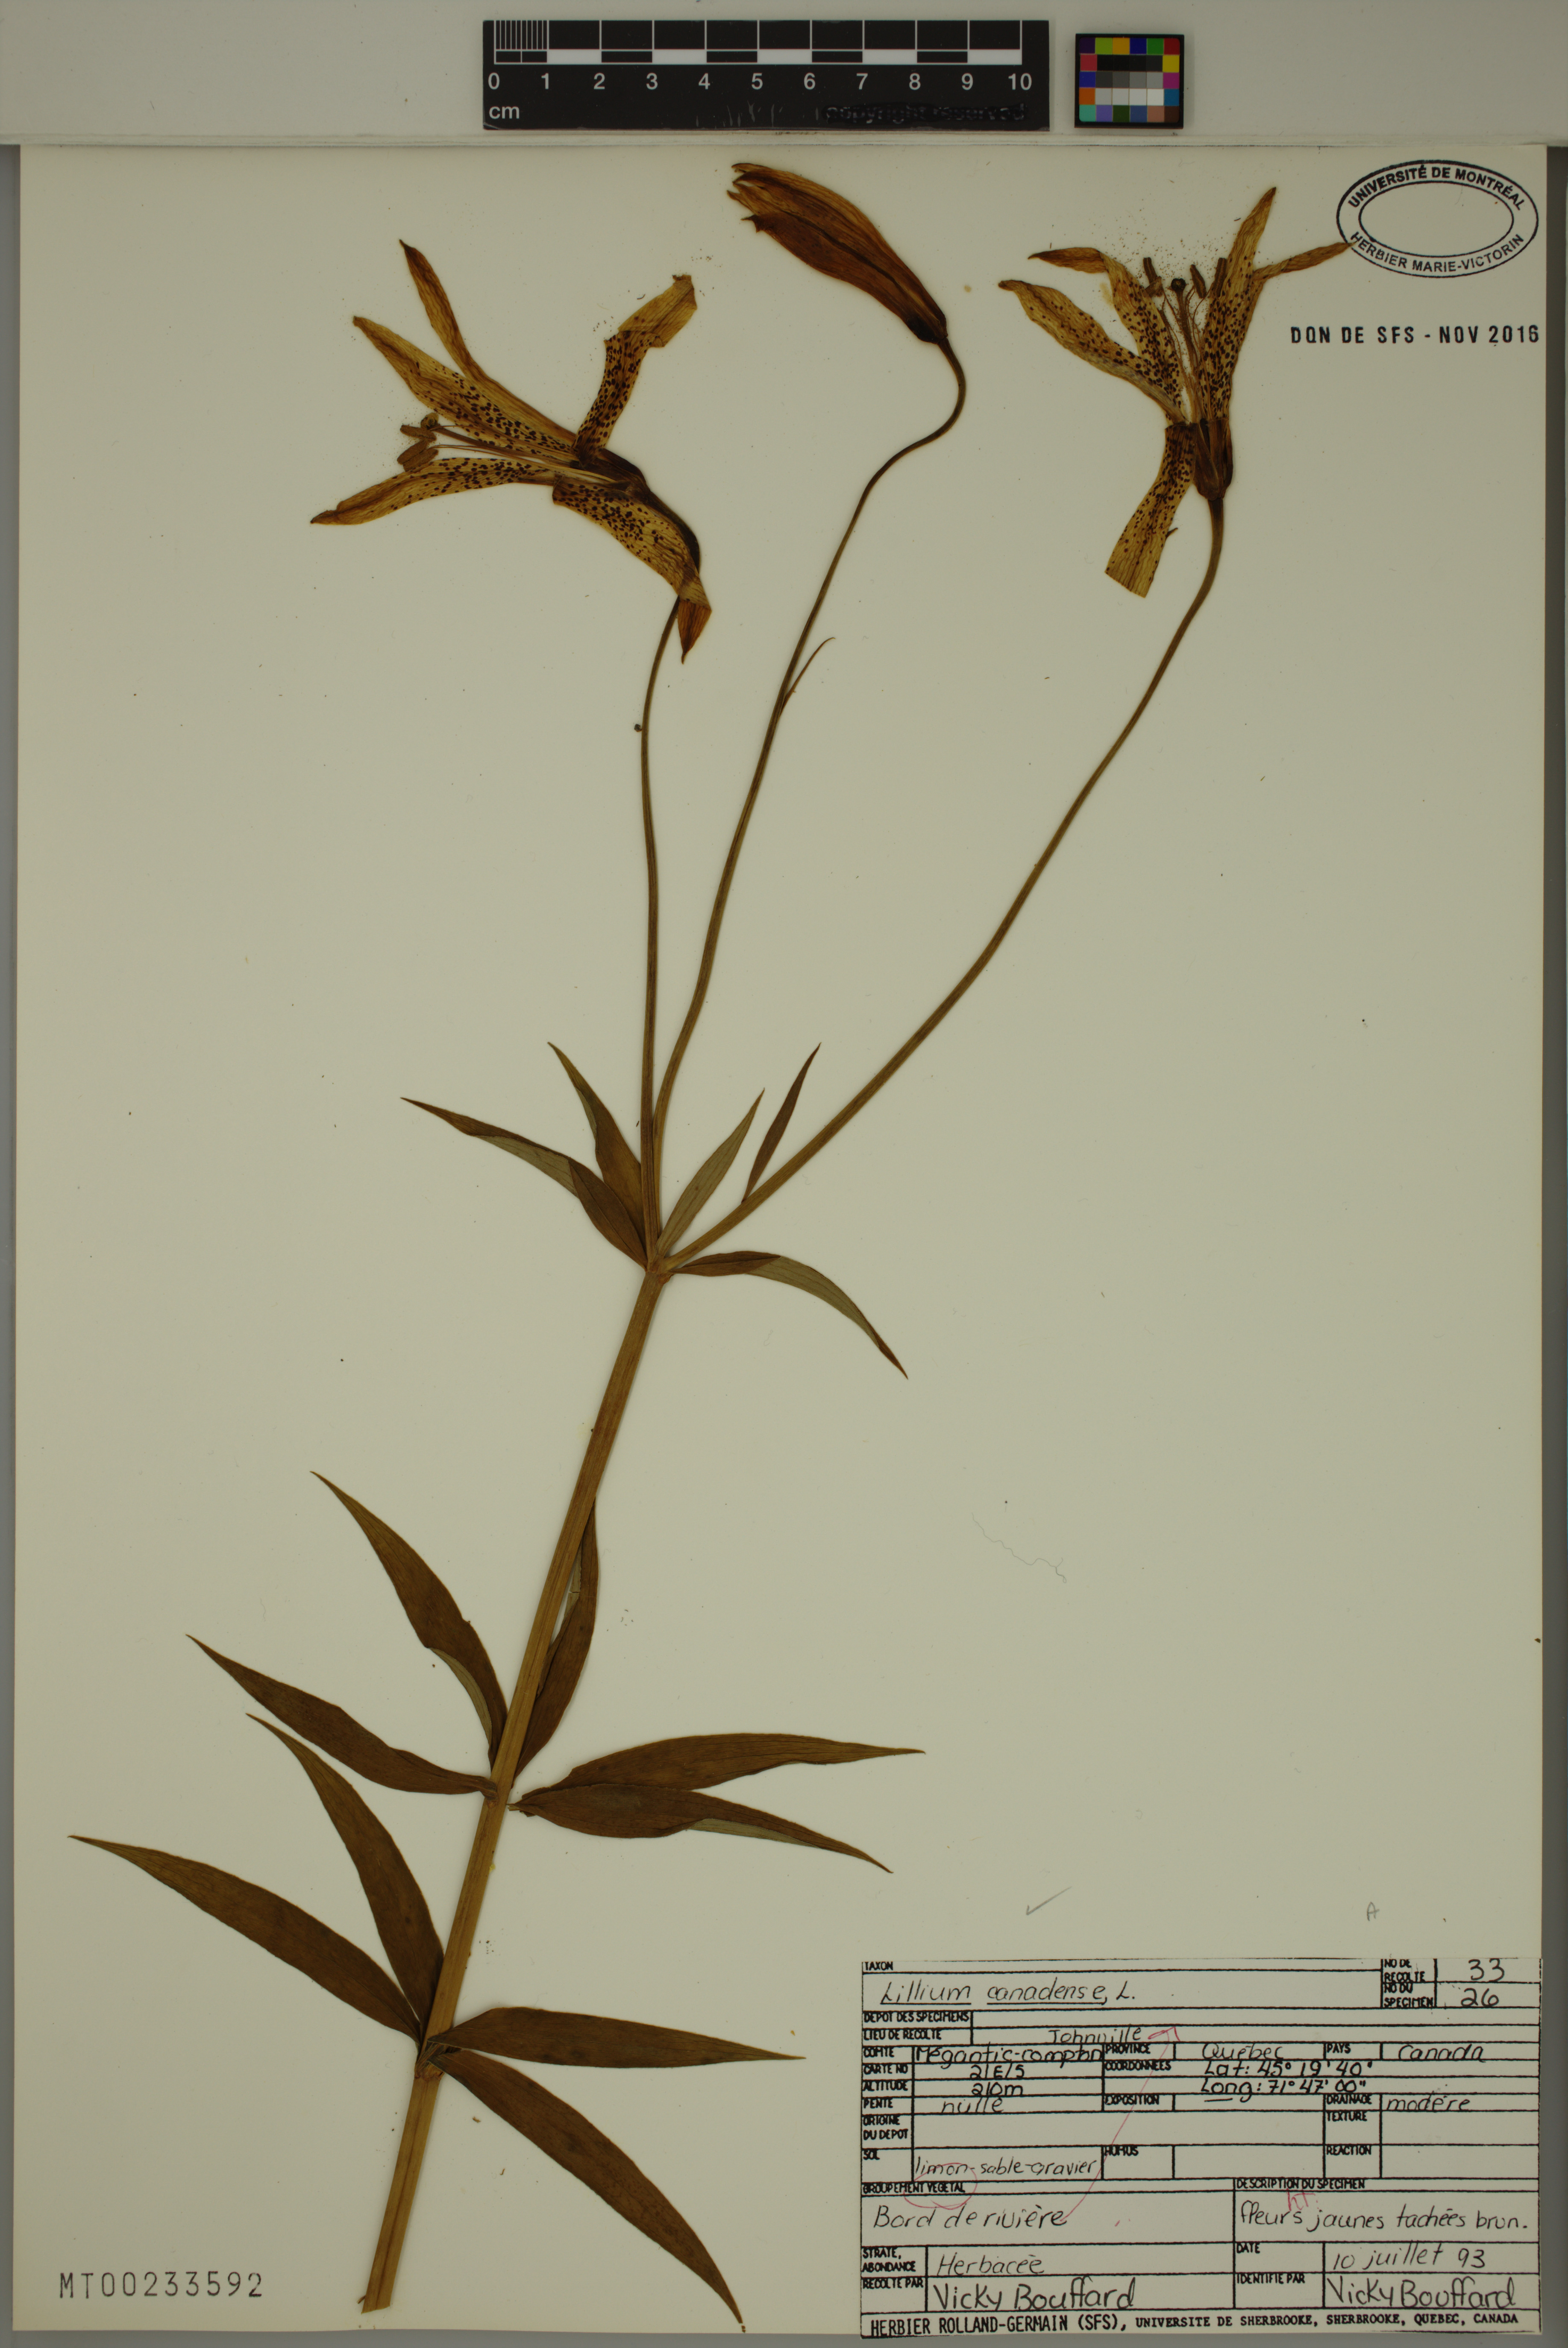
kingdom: Plantae
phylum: Tracheophyta
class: Liliopsida
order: Liliales
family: Liliaceae
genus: Lilium
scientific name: Lilium canadense
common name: Canada lily
